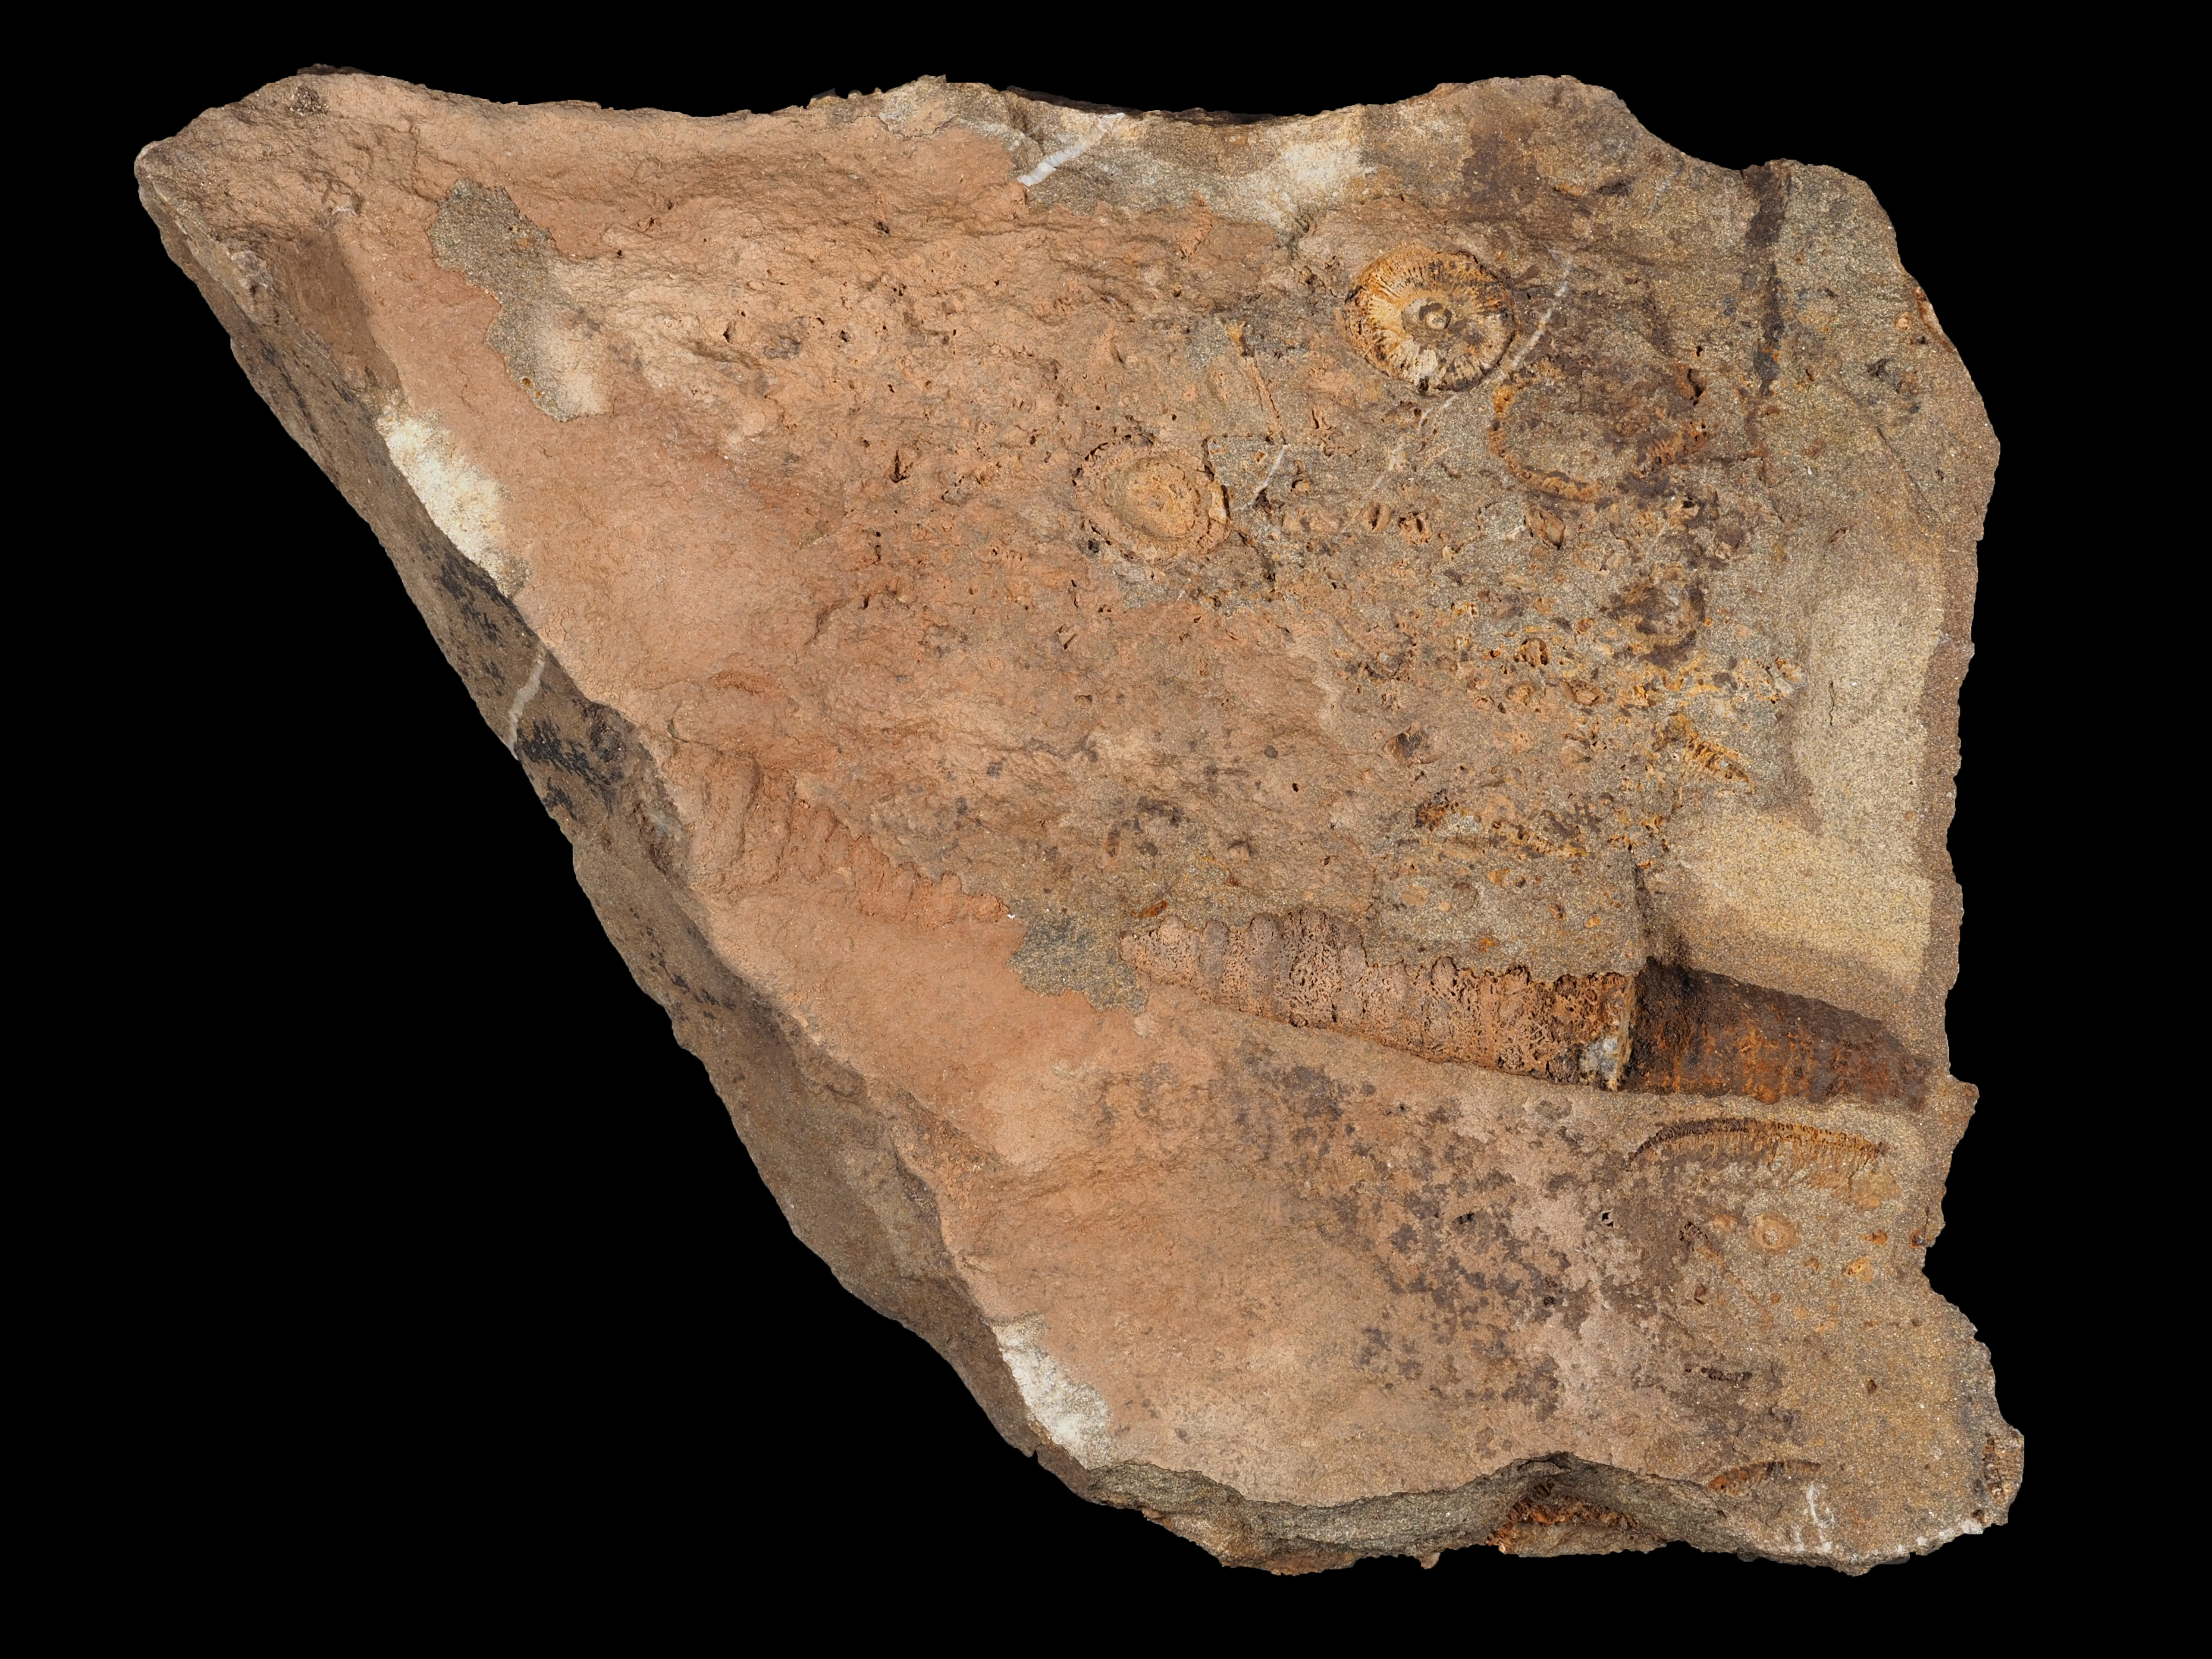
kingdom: Animalia
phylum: Echinodermata
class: Crinoidea
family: Melocrinitidae
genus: Ctenocrinus
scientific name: Ctenocrinus
